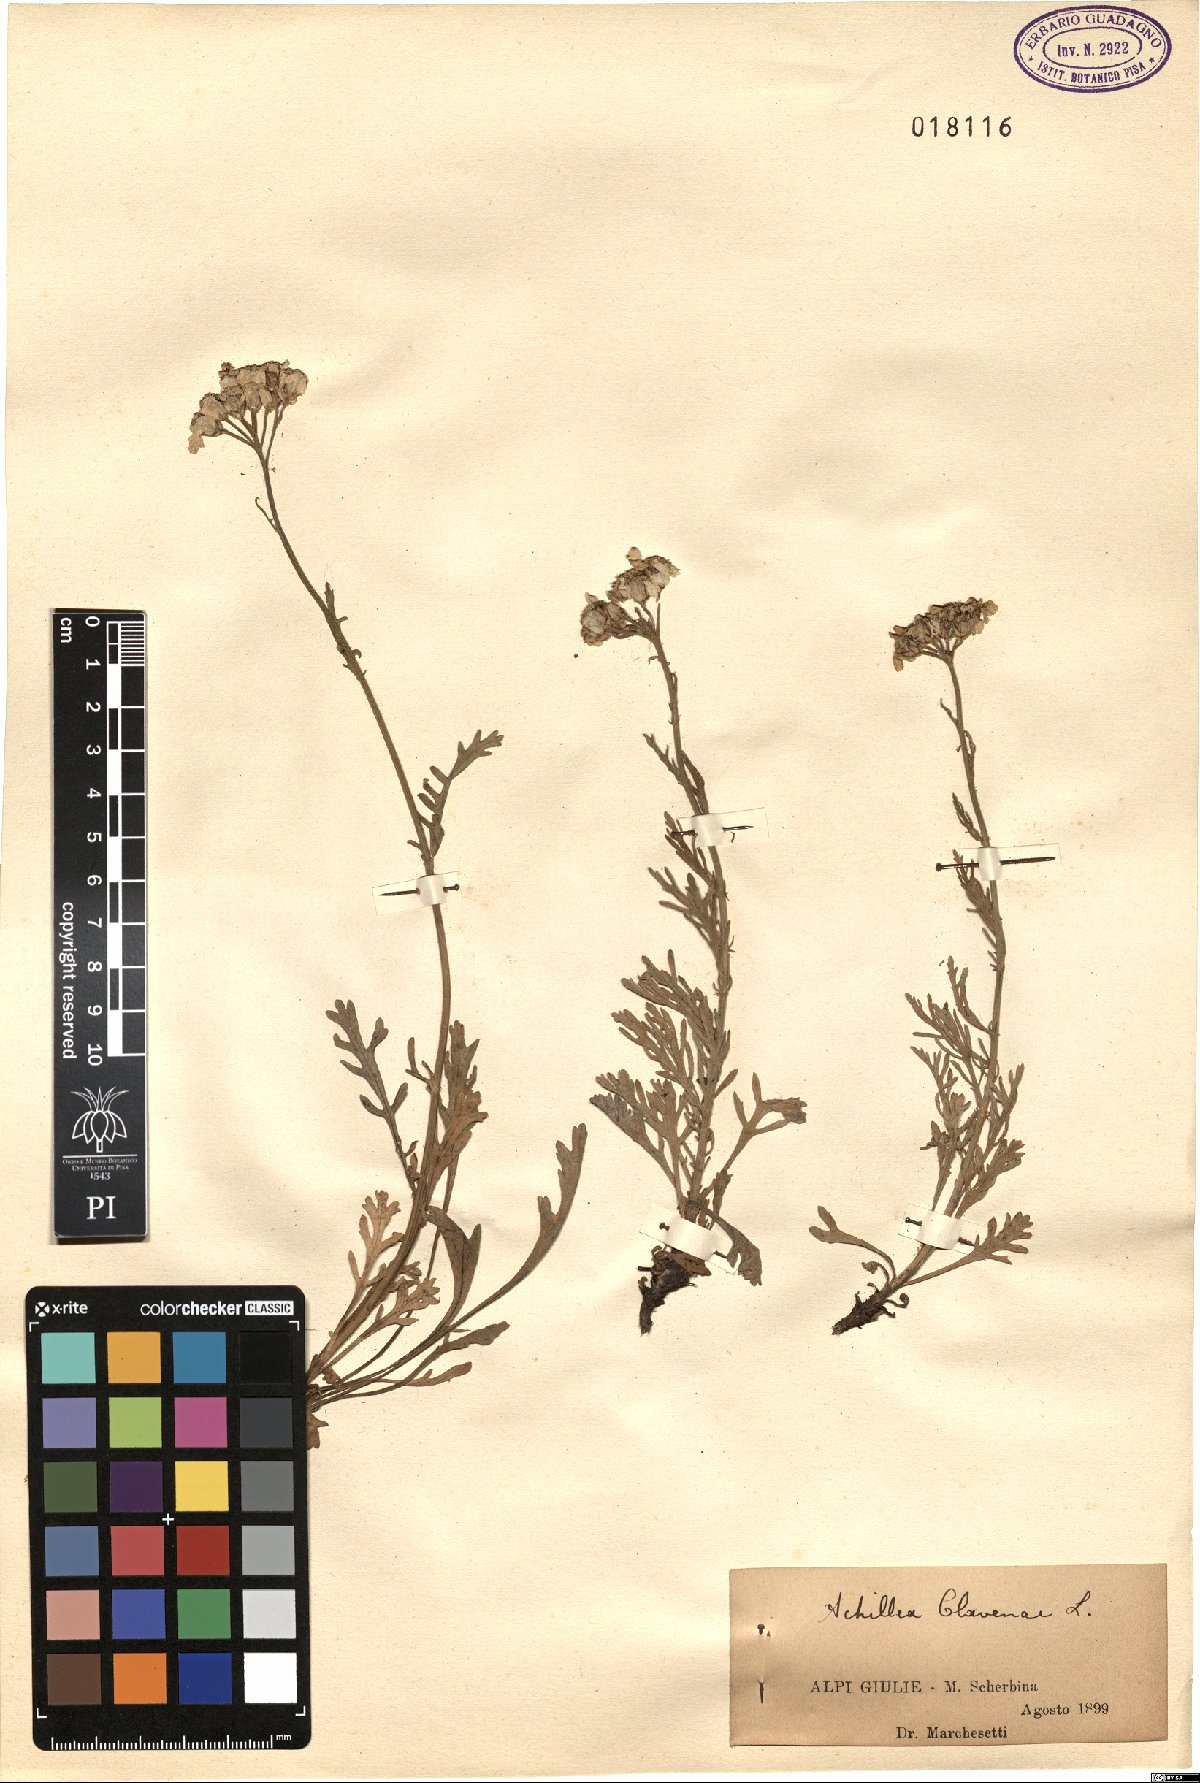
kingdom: Plantae
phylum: Tracheophyta
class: Magnoliopsida
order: Asterales
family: Asteraceae
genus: Achillea
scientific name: Achillea clavennae
